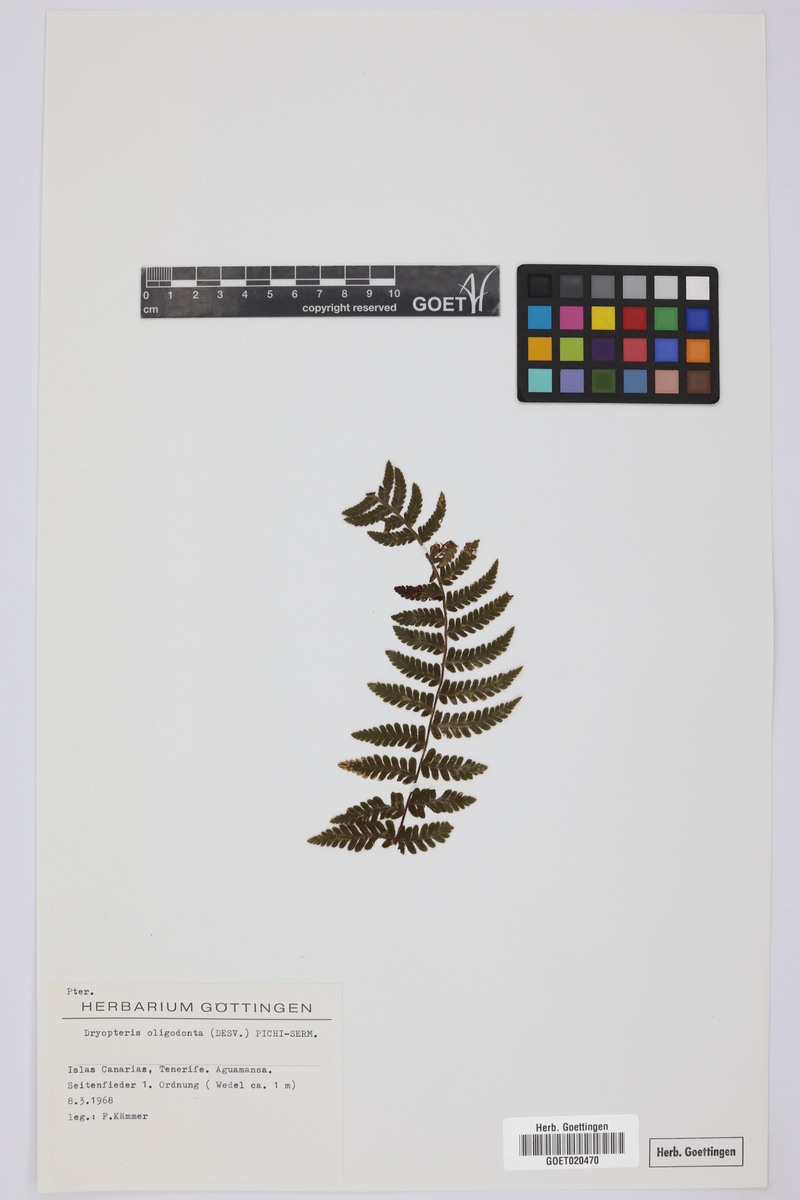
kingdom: Plantae
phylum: Tracheophyta
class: Polypodiopsida
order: Polypodiales
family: Dryopteridaceae
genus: Dryopteris
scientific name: Dryopteris oligodonta
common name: Canarian male-fern
